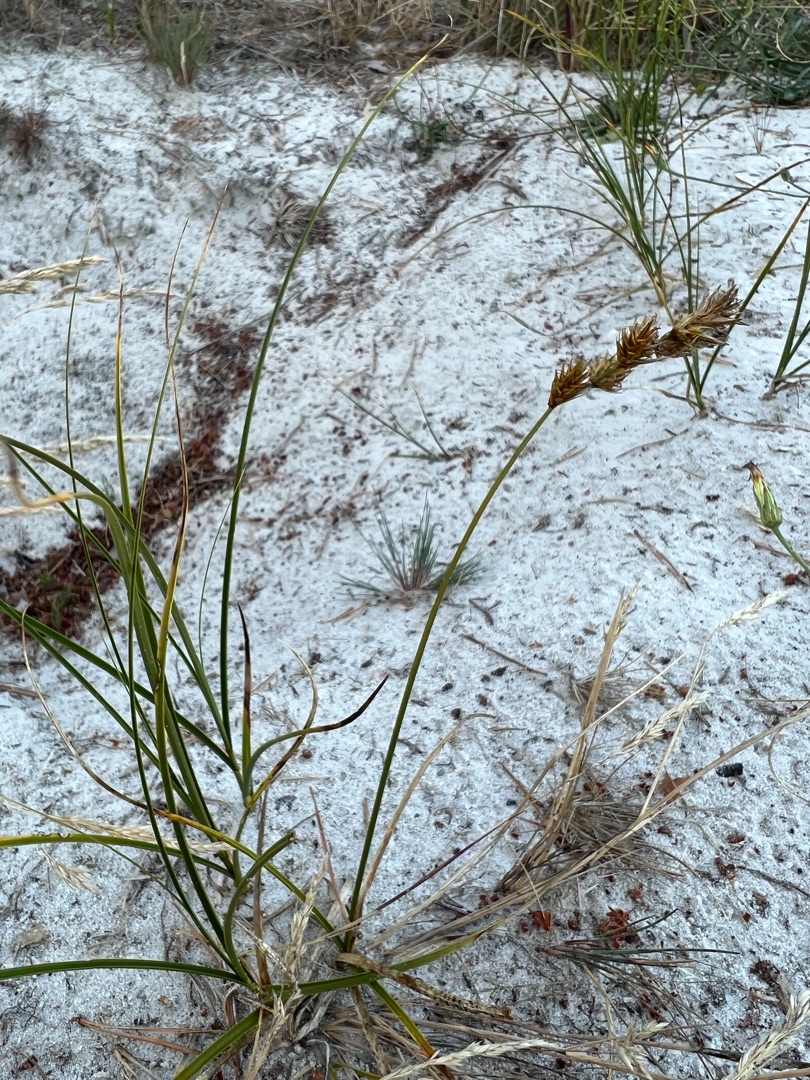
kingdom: Plantae
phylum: Tracheophyta
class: Liliopsida
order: Poales
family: Cyperaceae
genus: Carex
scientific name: Carex arenaria
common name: Sand-star
